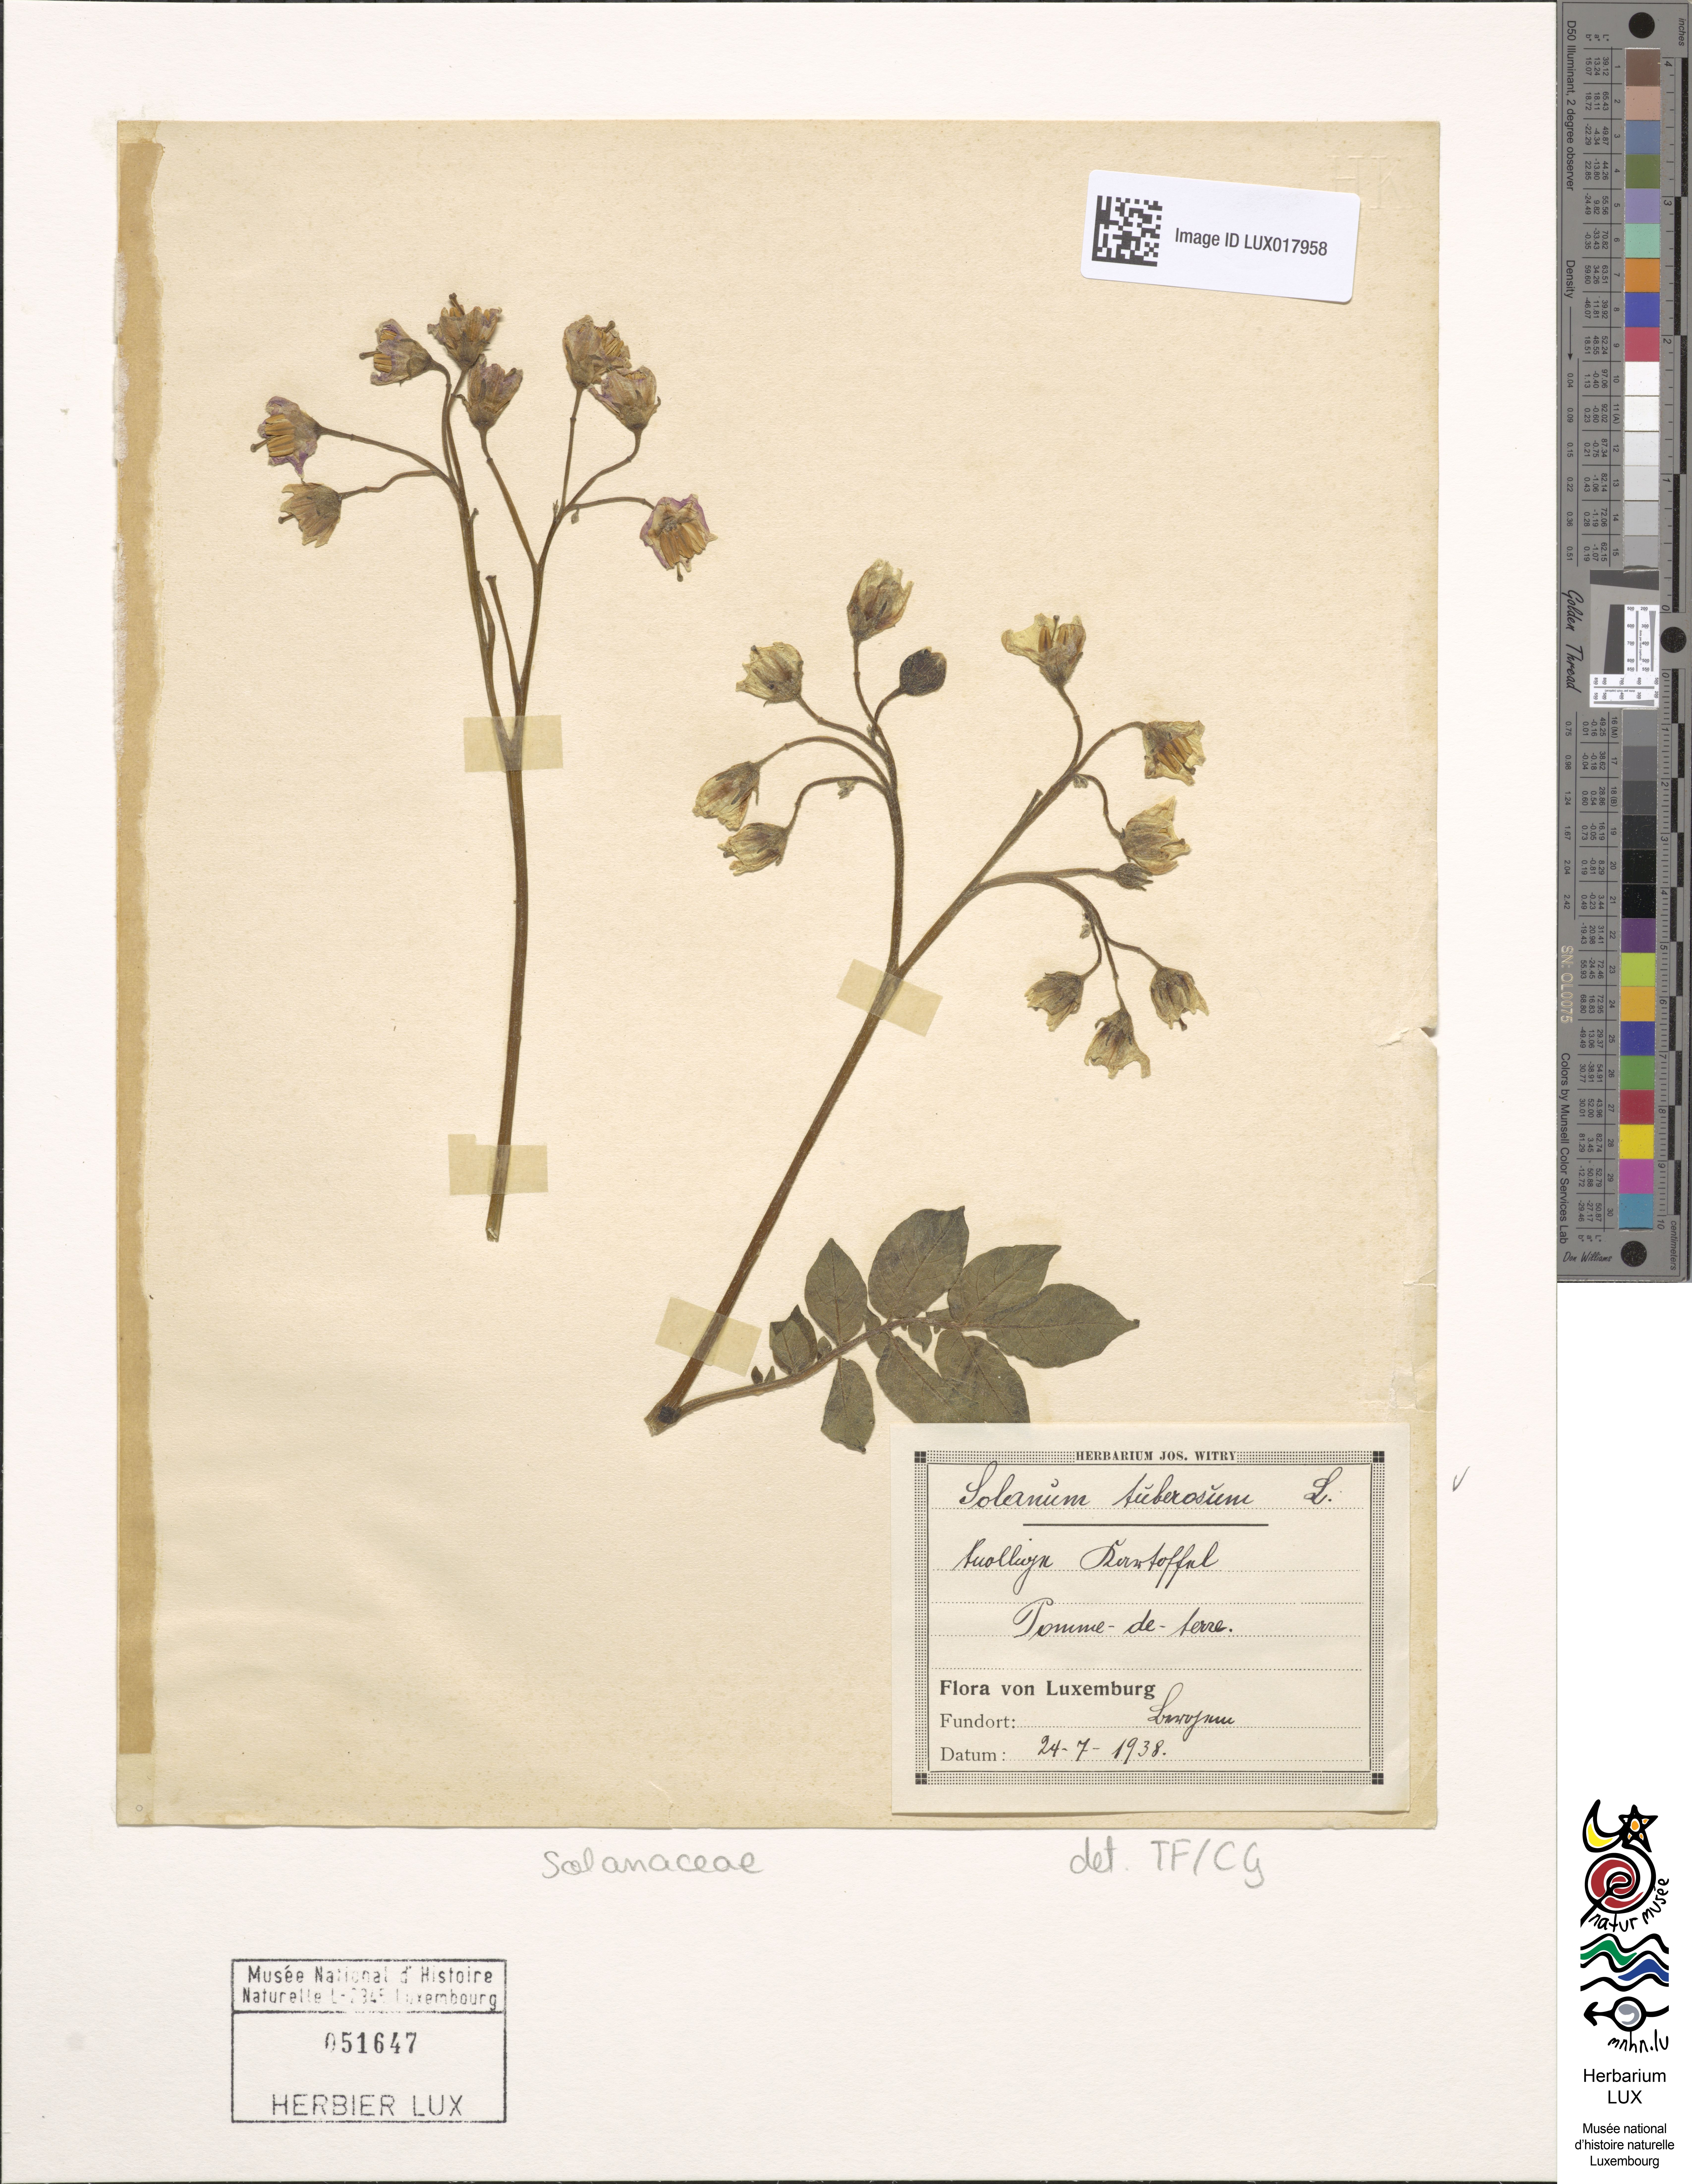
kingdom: Plantae
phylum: Tracheophyta
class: Magnoliopsida
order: Solanales
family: Solanaceae
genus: Solanum
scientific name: Solanum tuberosum
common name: Potato
